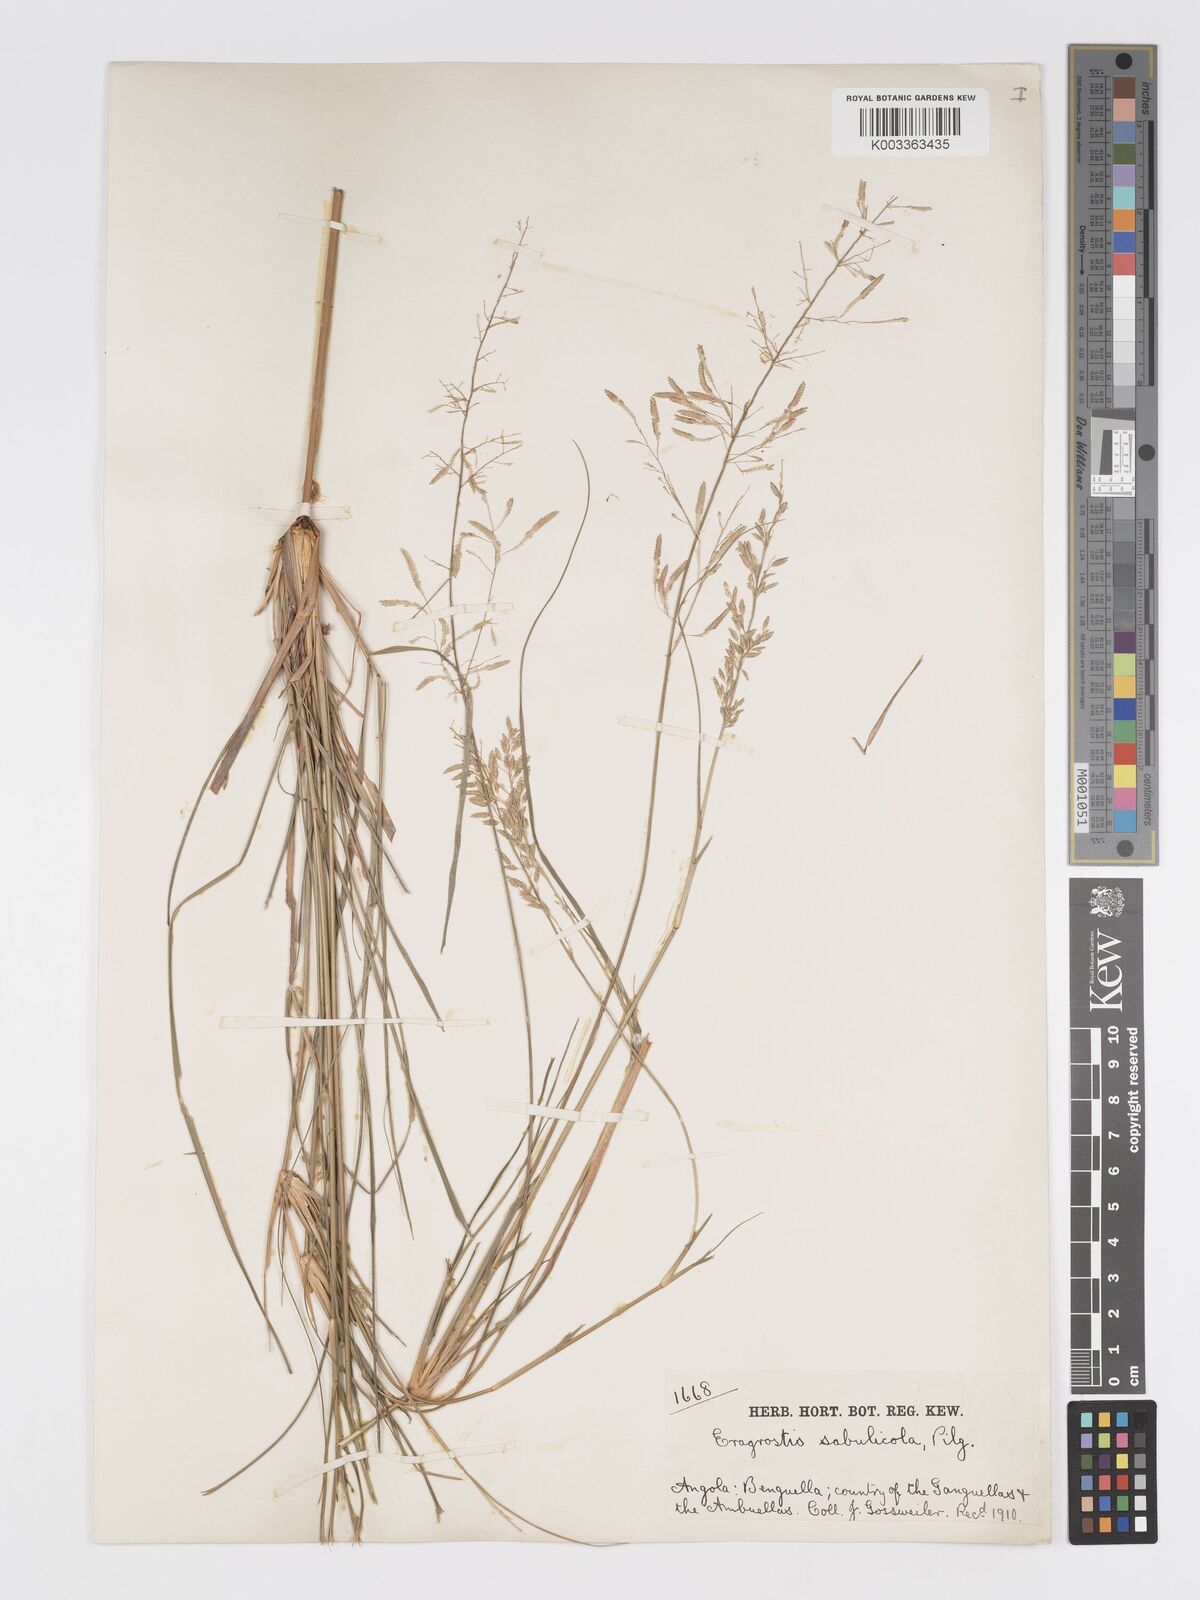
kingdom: Plantae
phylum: Tracheophyta
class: Liliopsida
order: Poales
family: Poaceae
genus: Eragrostis
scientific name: Eragrostis prolifera
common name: Dominican lovegrass
